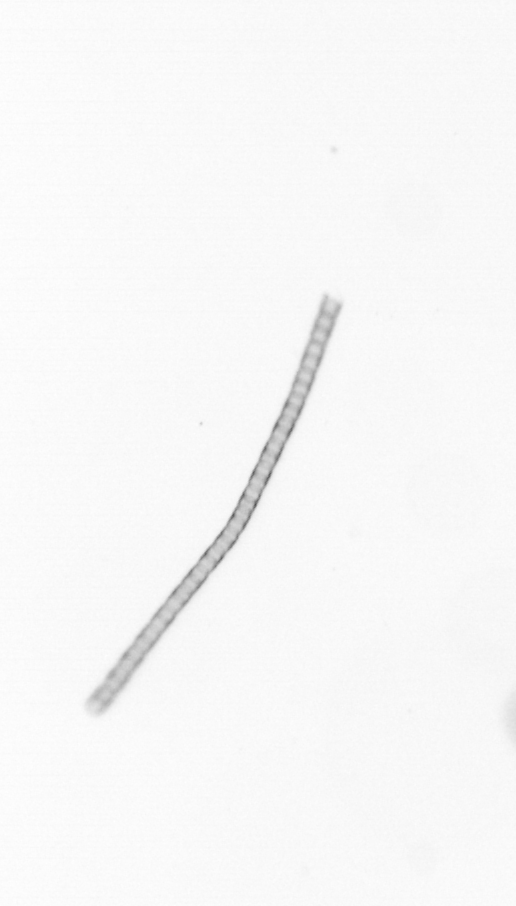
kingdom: Chromista
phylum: Ochrophyta
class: Bacillariophyceae
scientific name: Bacillariophyceae
